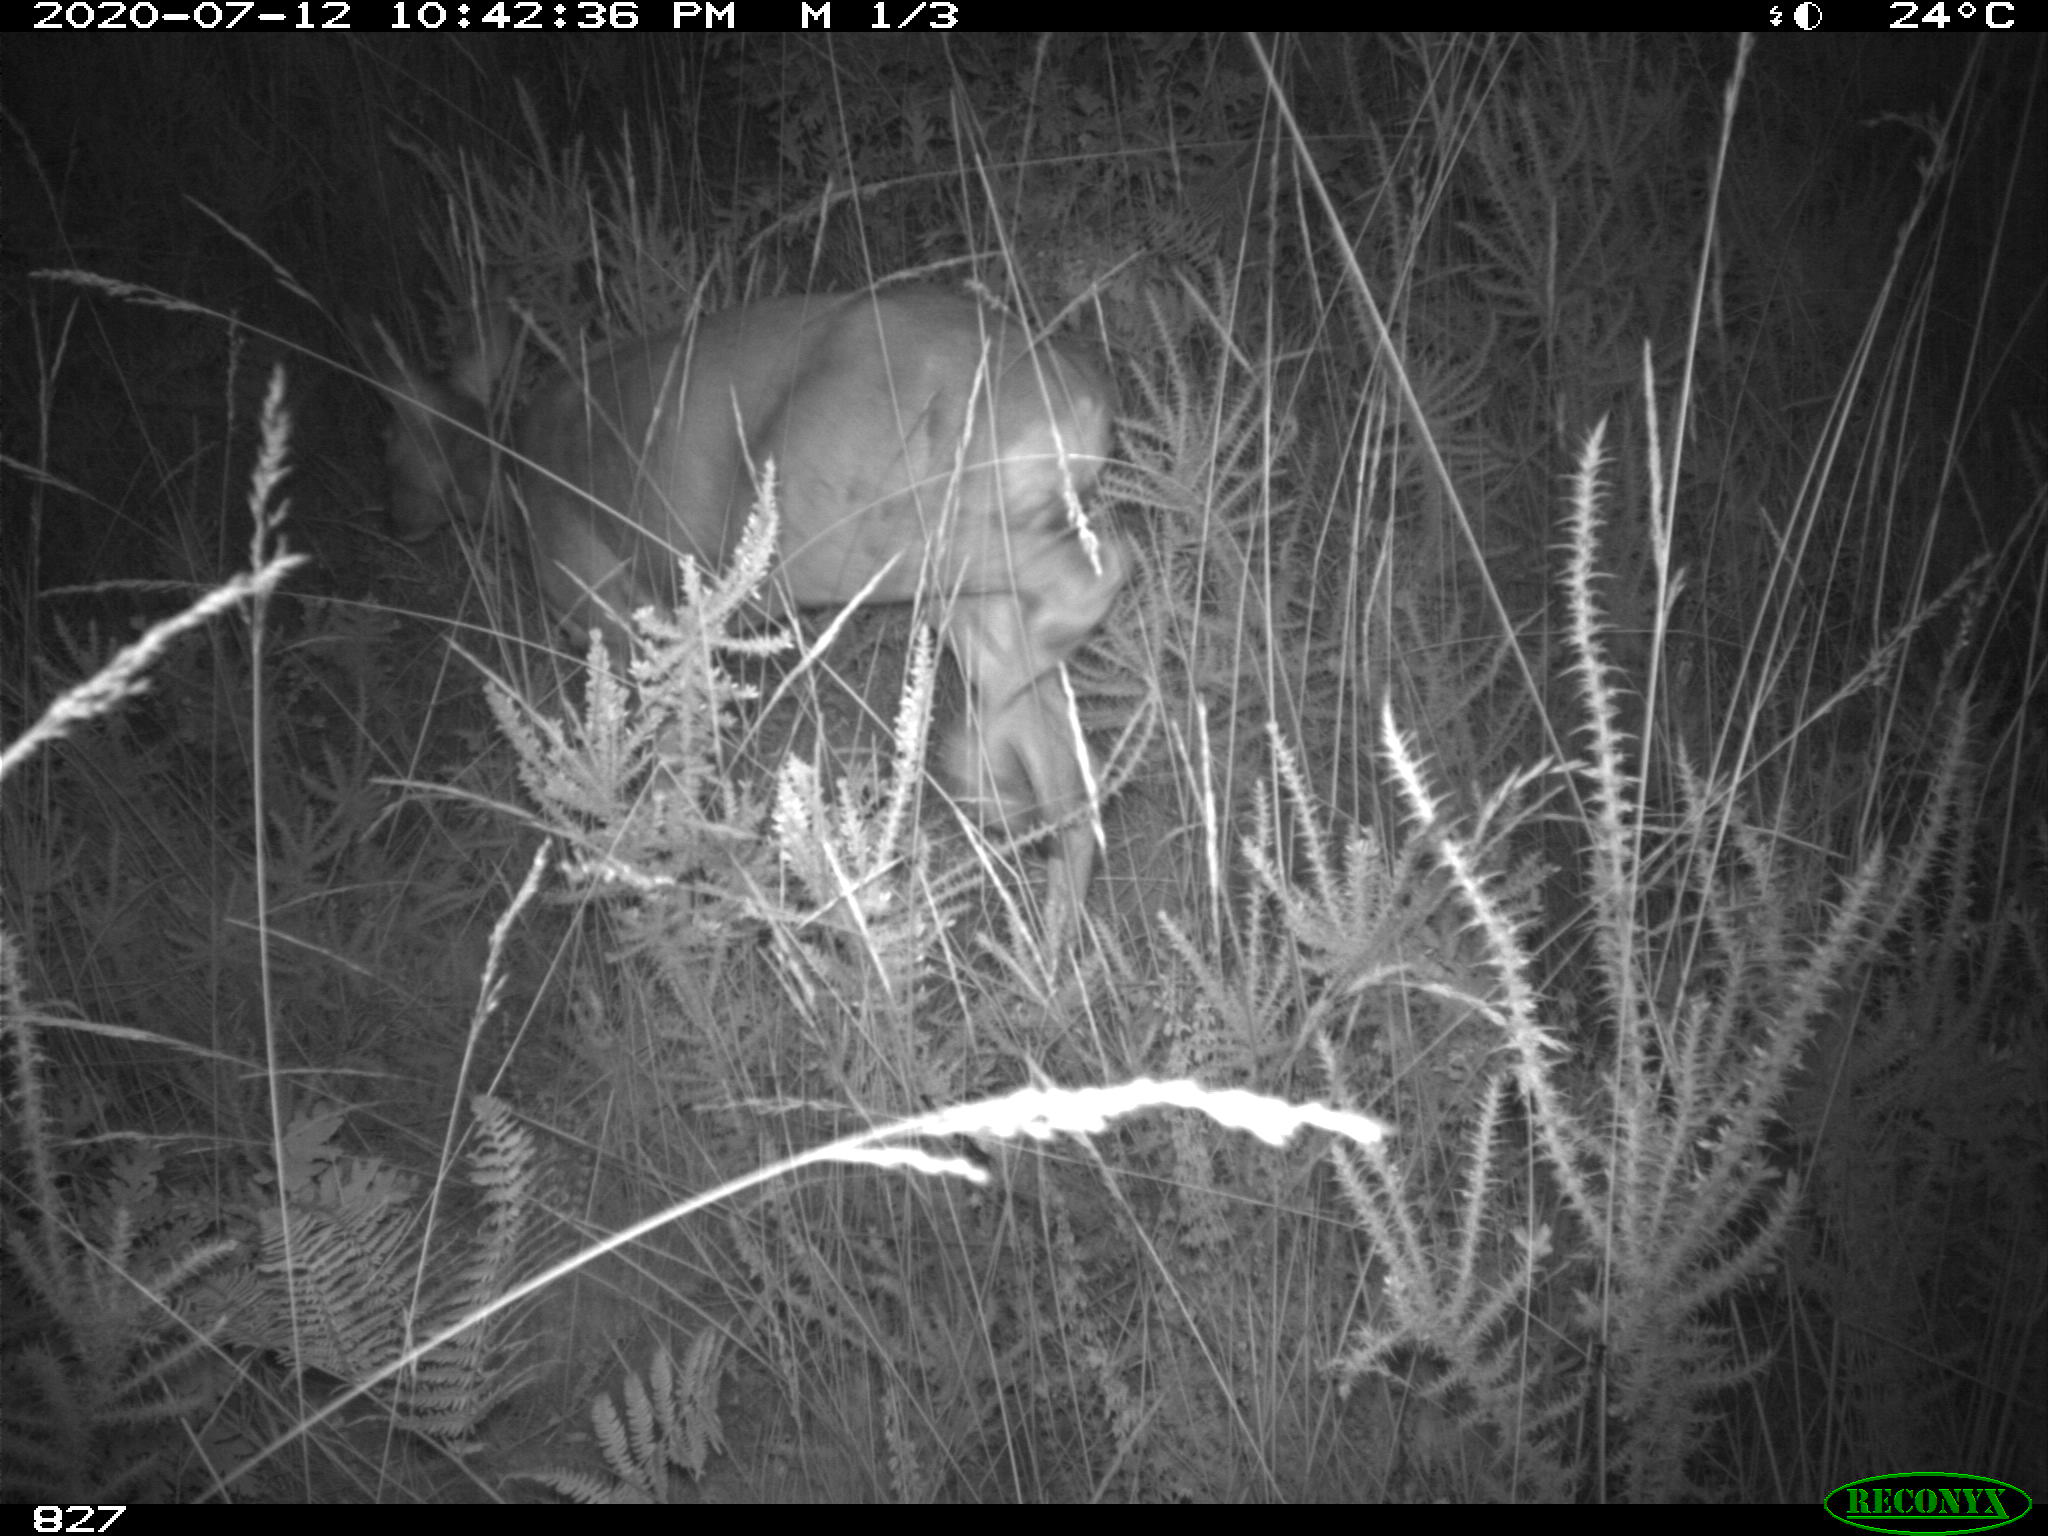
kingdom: Animalia
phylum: Chordata
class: Mammalia
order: Artiodactyla
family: Cervidae
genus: Capreolus
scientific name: Capreolus capreolus
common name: Western roe deer
